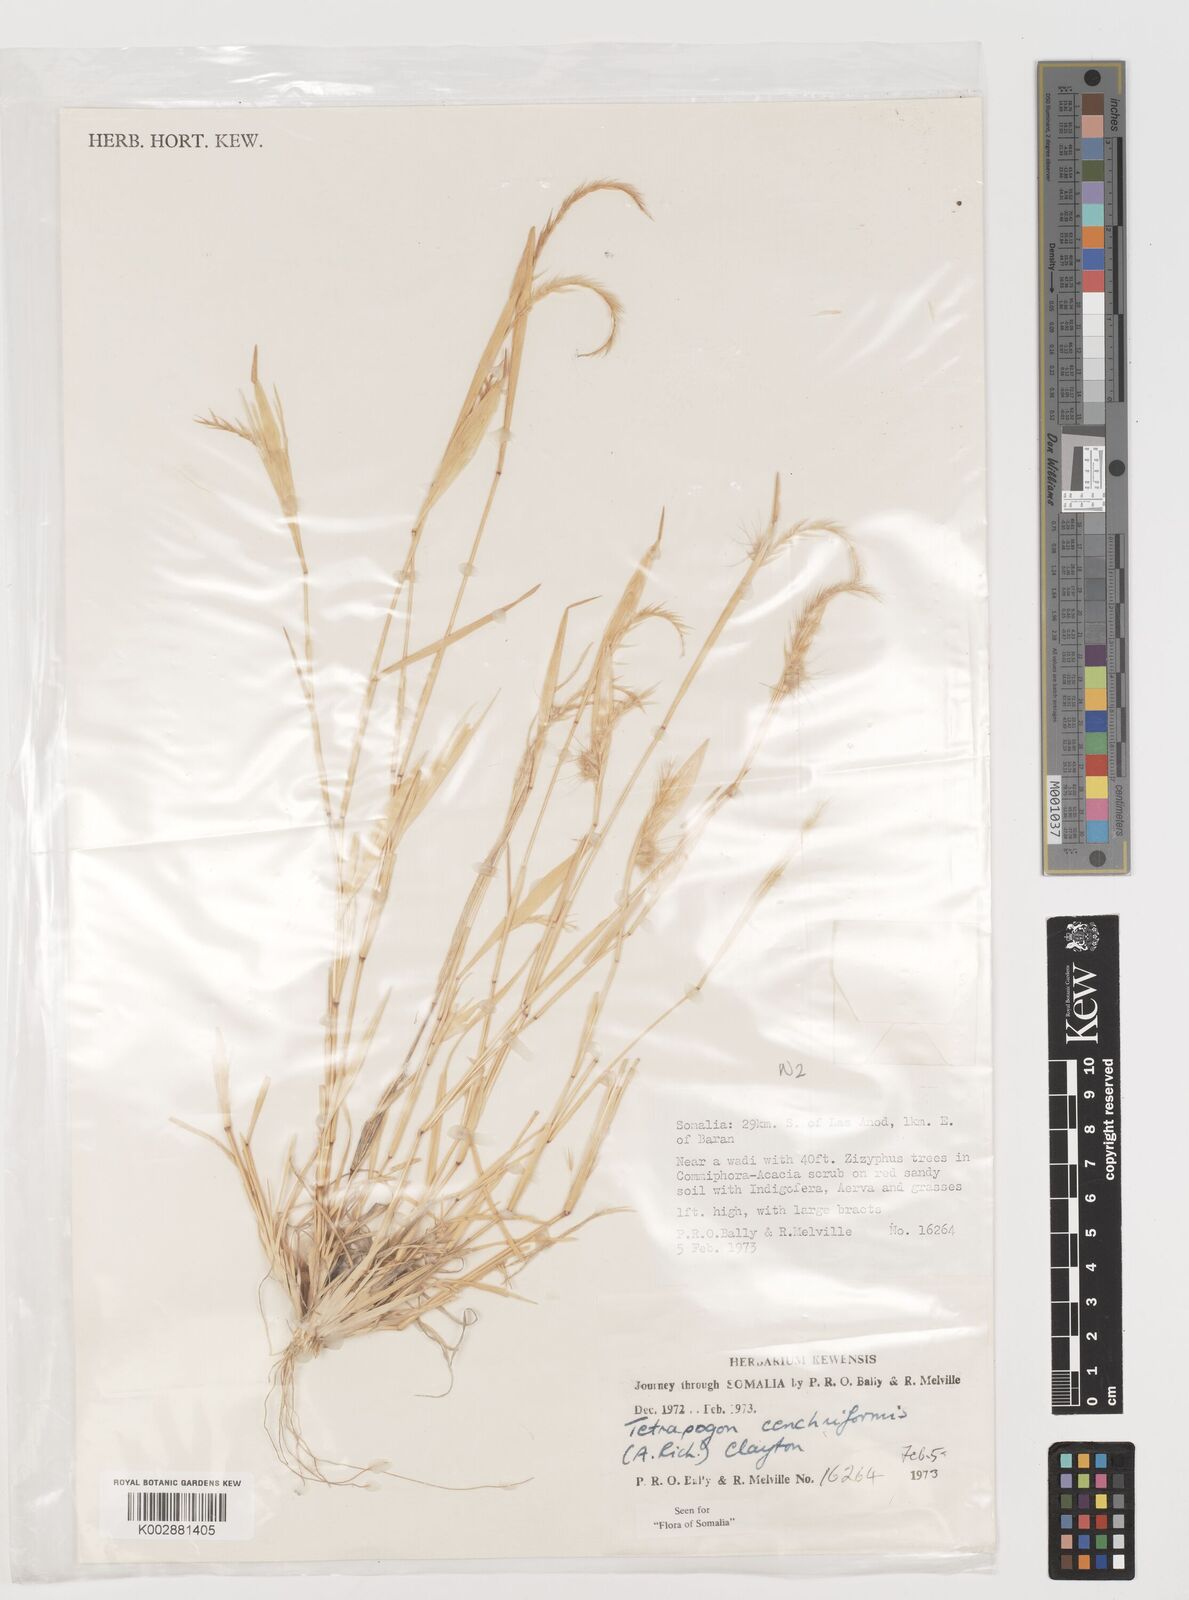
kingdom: Plantae
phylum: Tracheophyta
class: Liliopsida
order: Poales
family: Poaceae
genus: Tetrapogon
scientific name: Tetrapogon cenchriformis
